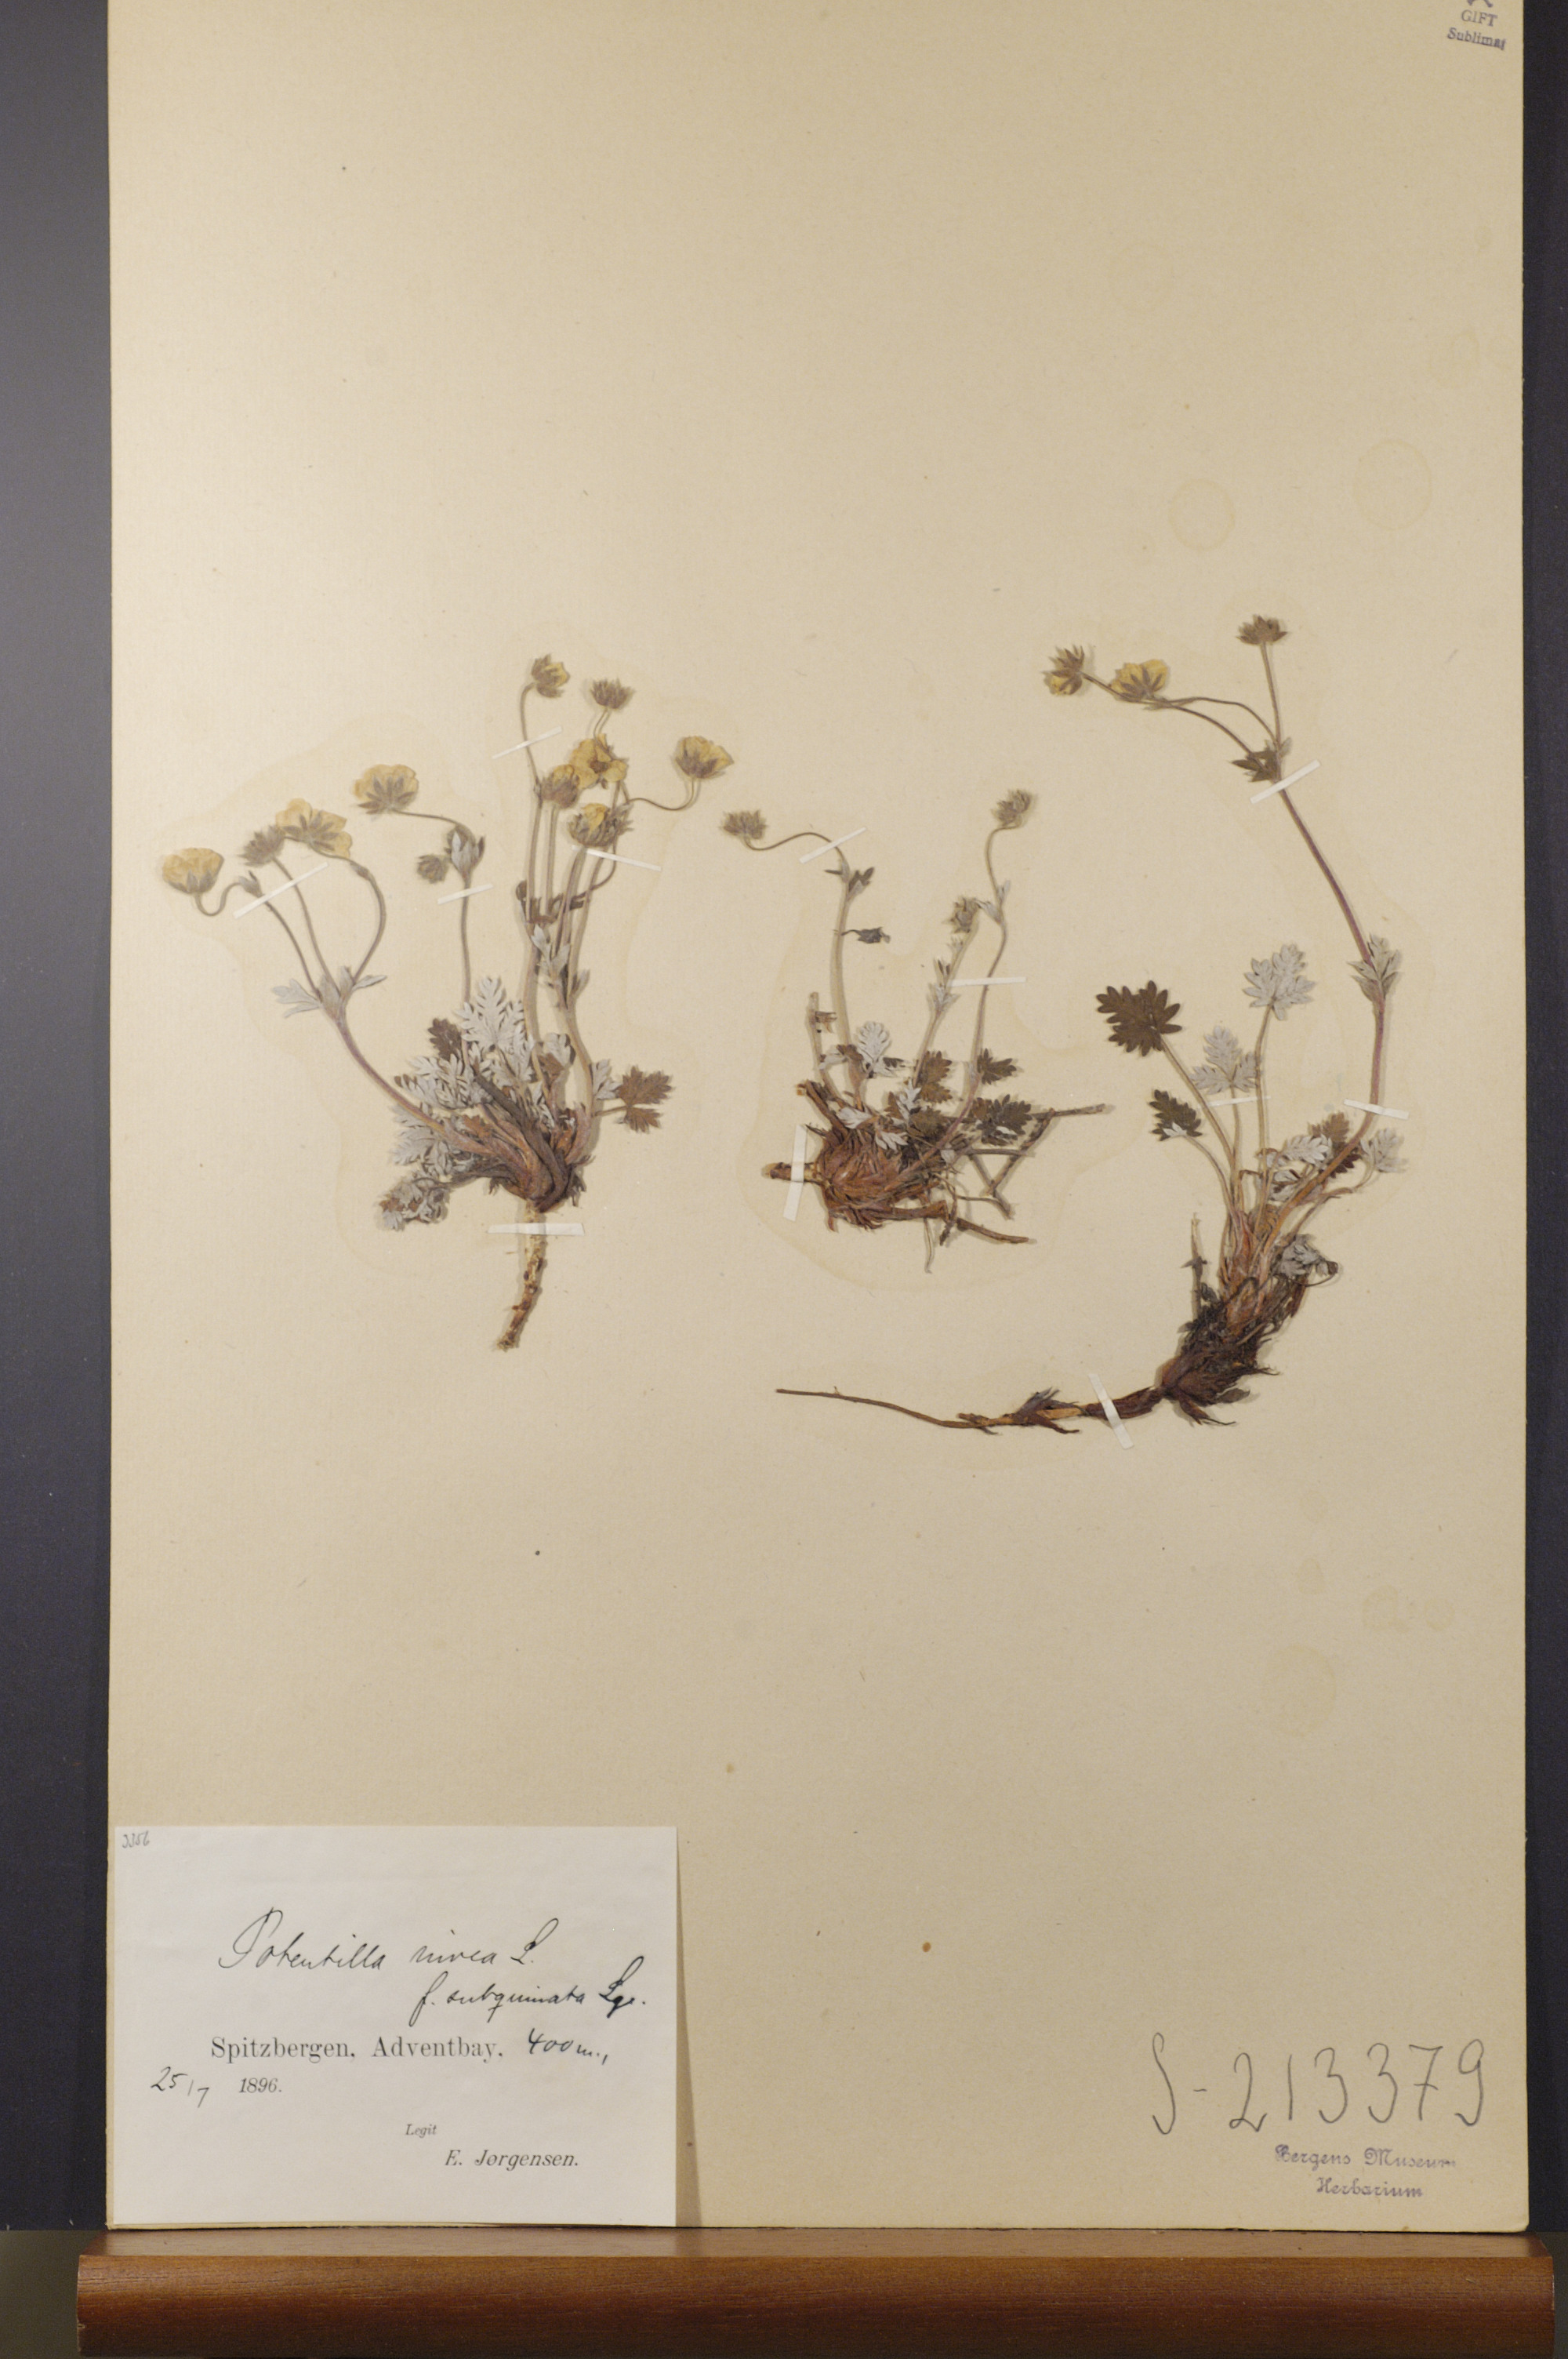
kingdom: Plantae
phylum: Tracheophyta
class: Magnoliopsida
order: Rosales
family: Rosaceae
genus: Potentilla
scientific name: Potentilla prostrata
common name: Prostrate cinquefoil
